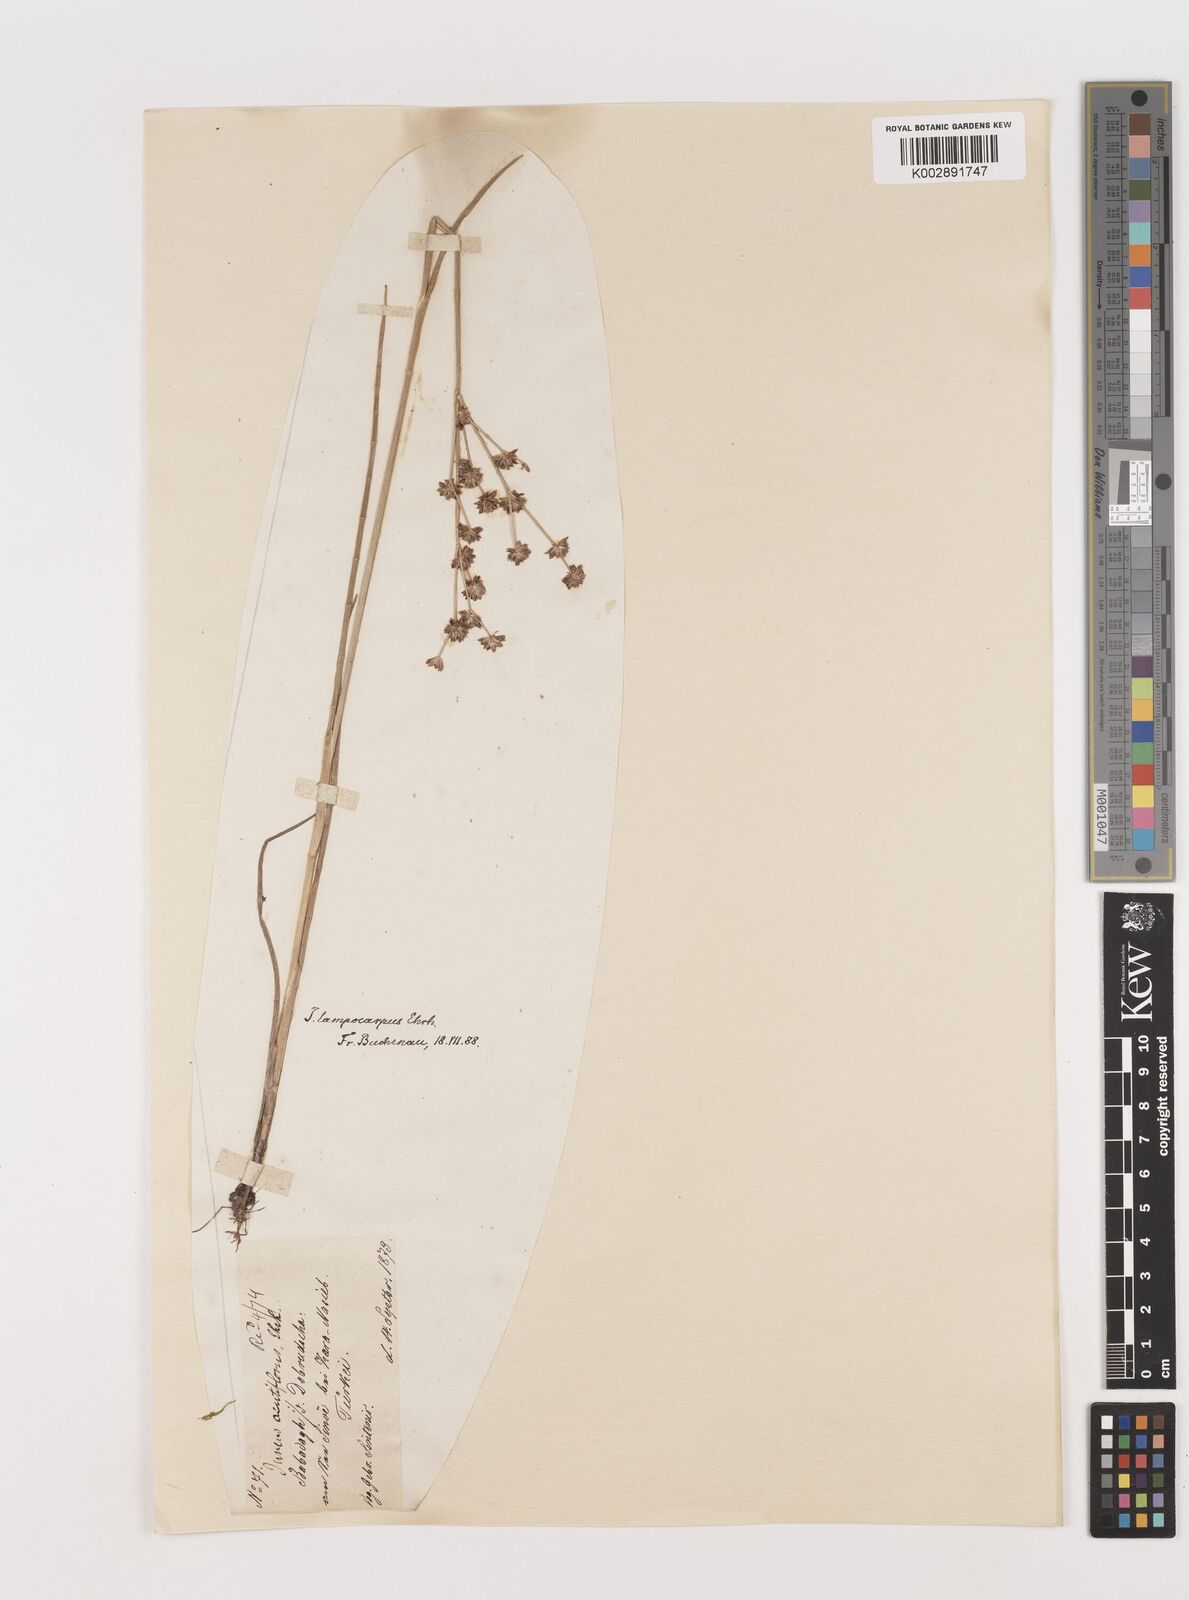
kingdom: Plantae
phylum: Tracheophyta
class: Liliopsida
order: Poales
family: Juncaceae
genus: Juncus
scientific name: Juncus articulatus
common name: Jointed rush
